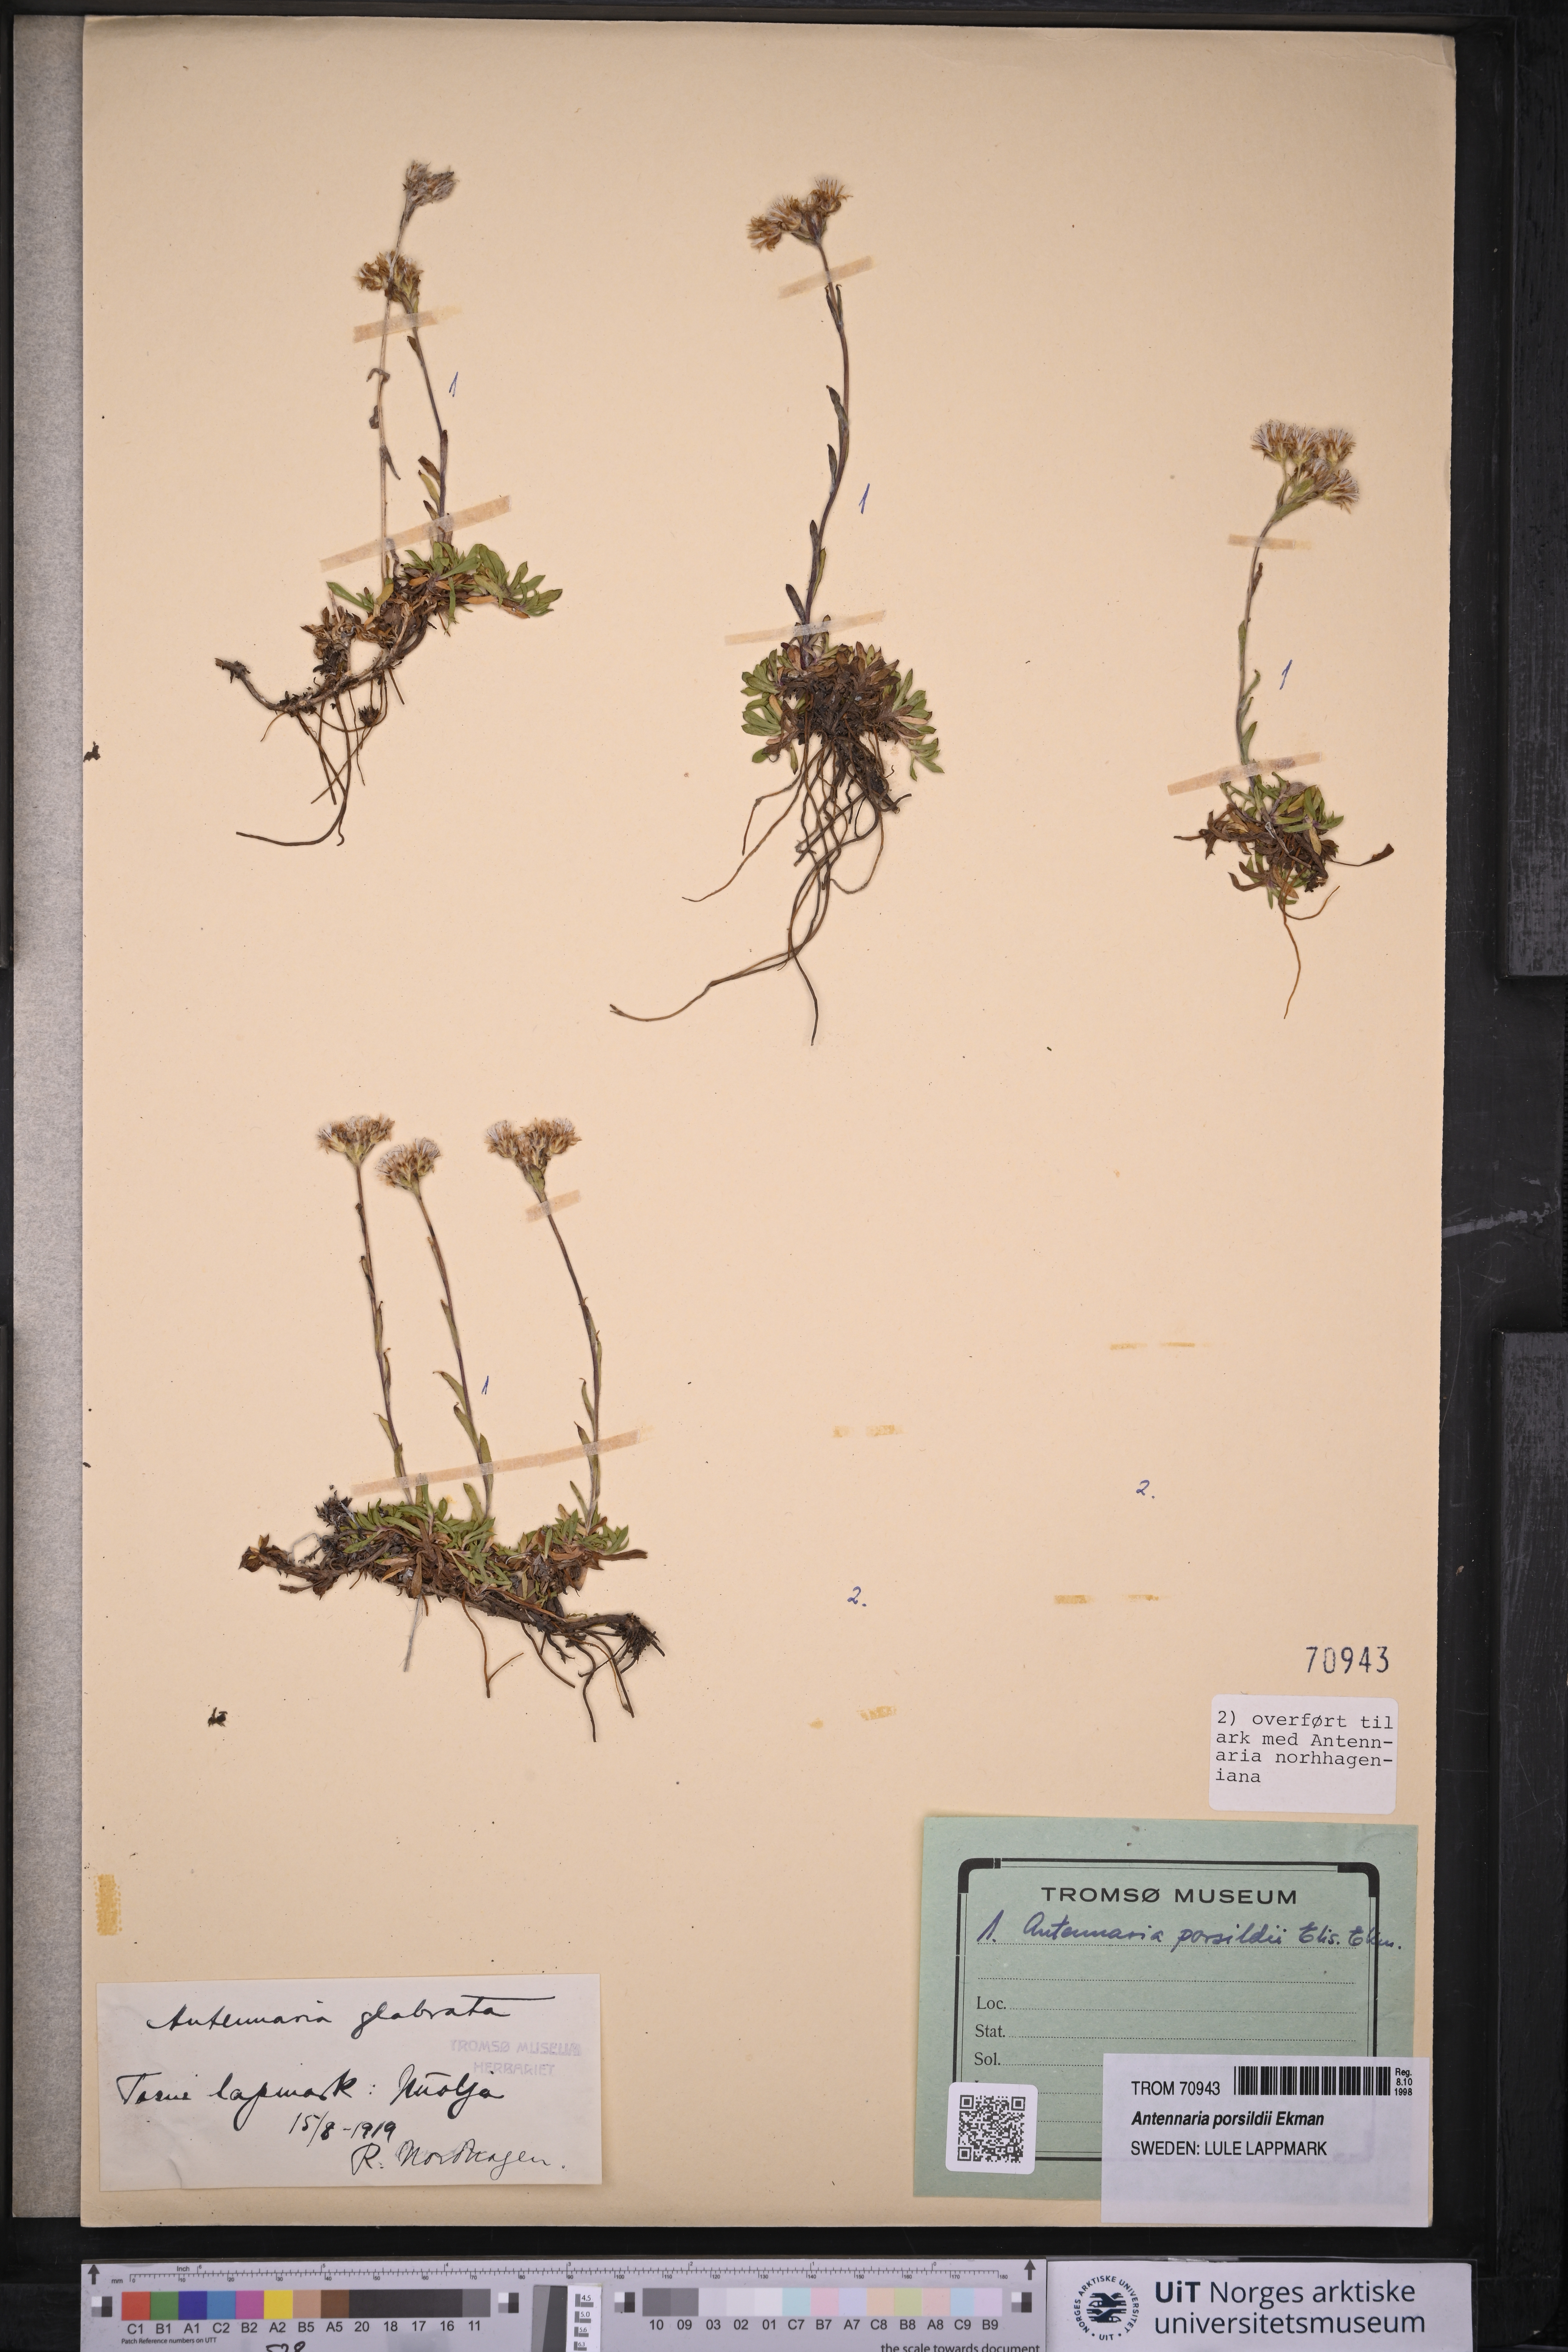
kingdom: Plantae
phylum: Tracheophyta
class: Magnoliopsida
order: Asterales
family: Asteraceae
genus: Antennaria
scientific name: Antennaria porsildii
